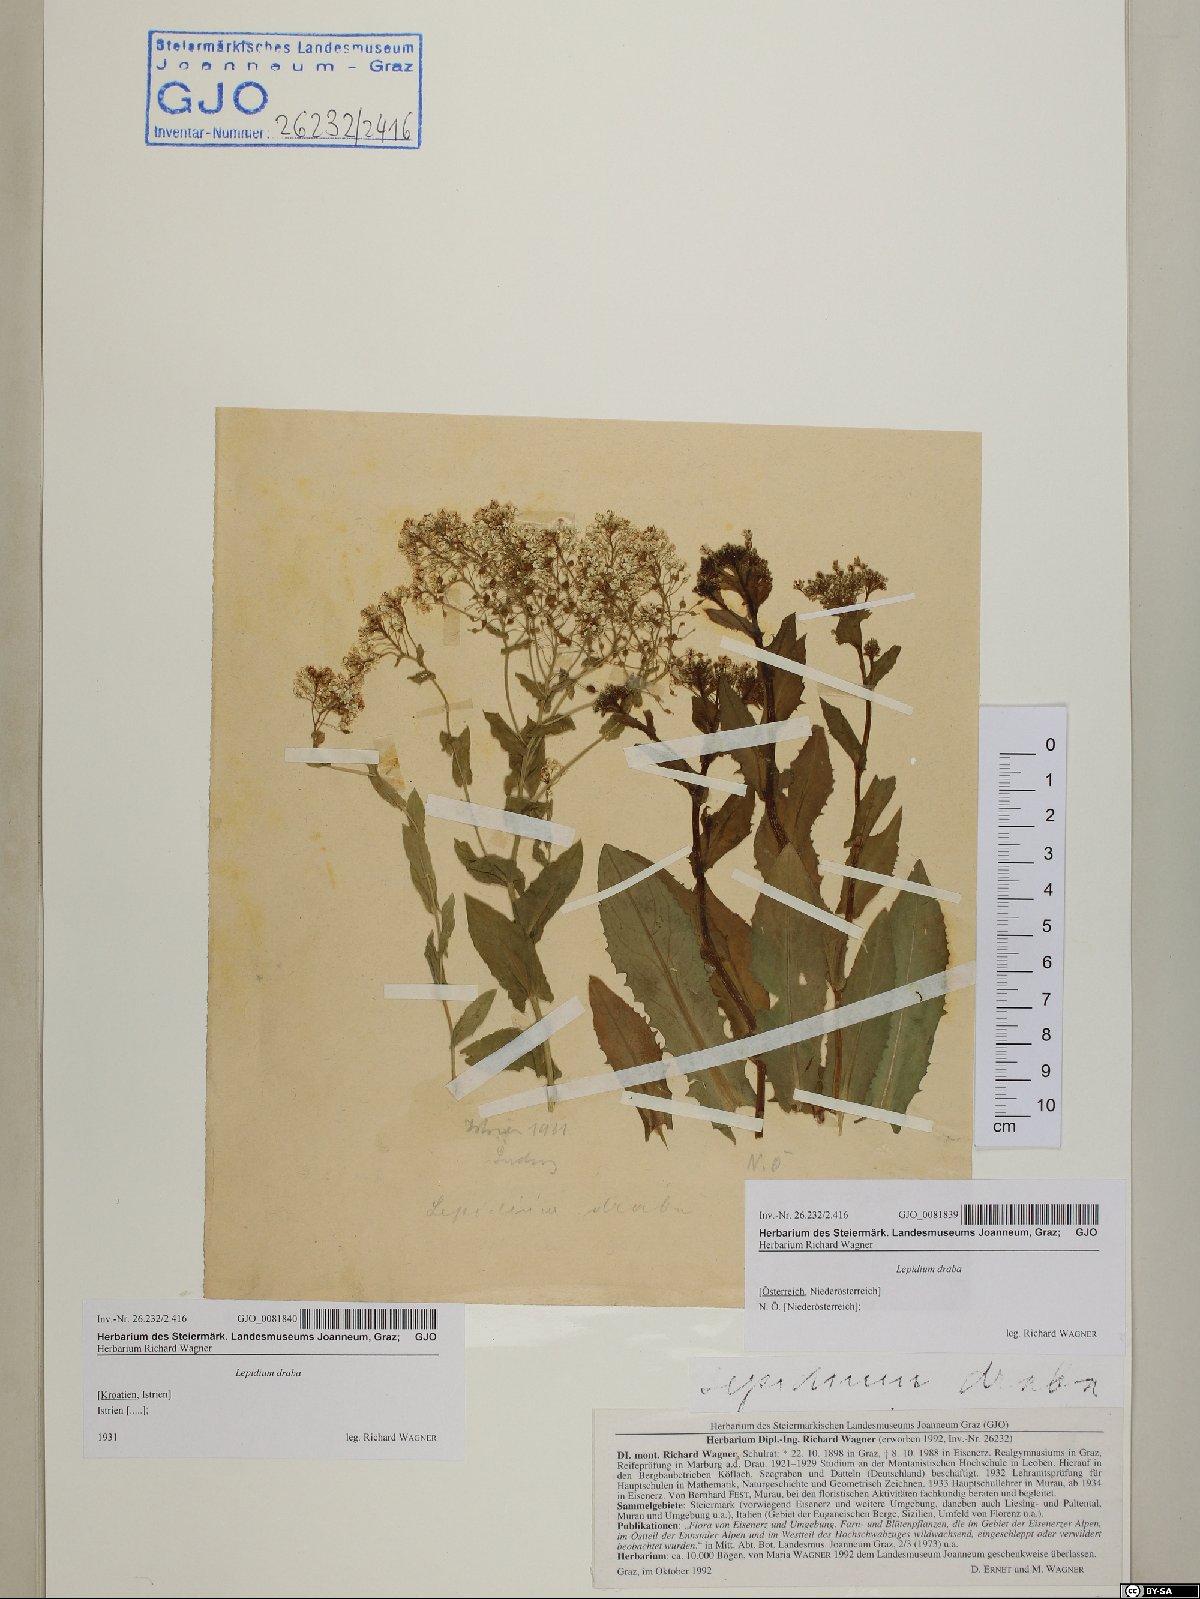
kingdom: Plantae
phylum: Tracheophyta
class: Magnoliopsida
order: Brassicales
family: Brassicaceae
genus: Lepidium
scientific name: Lepidium draba
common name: Hoary cress
